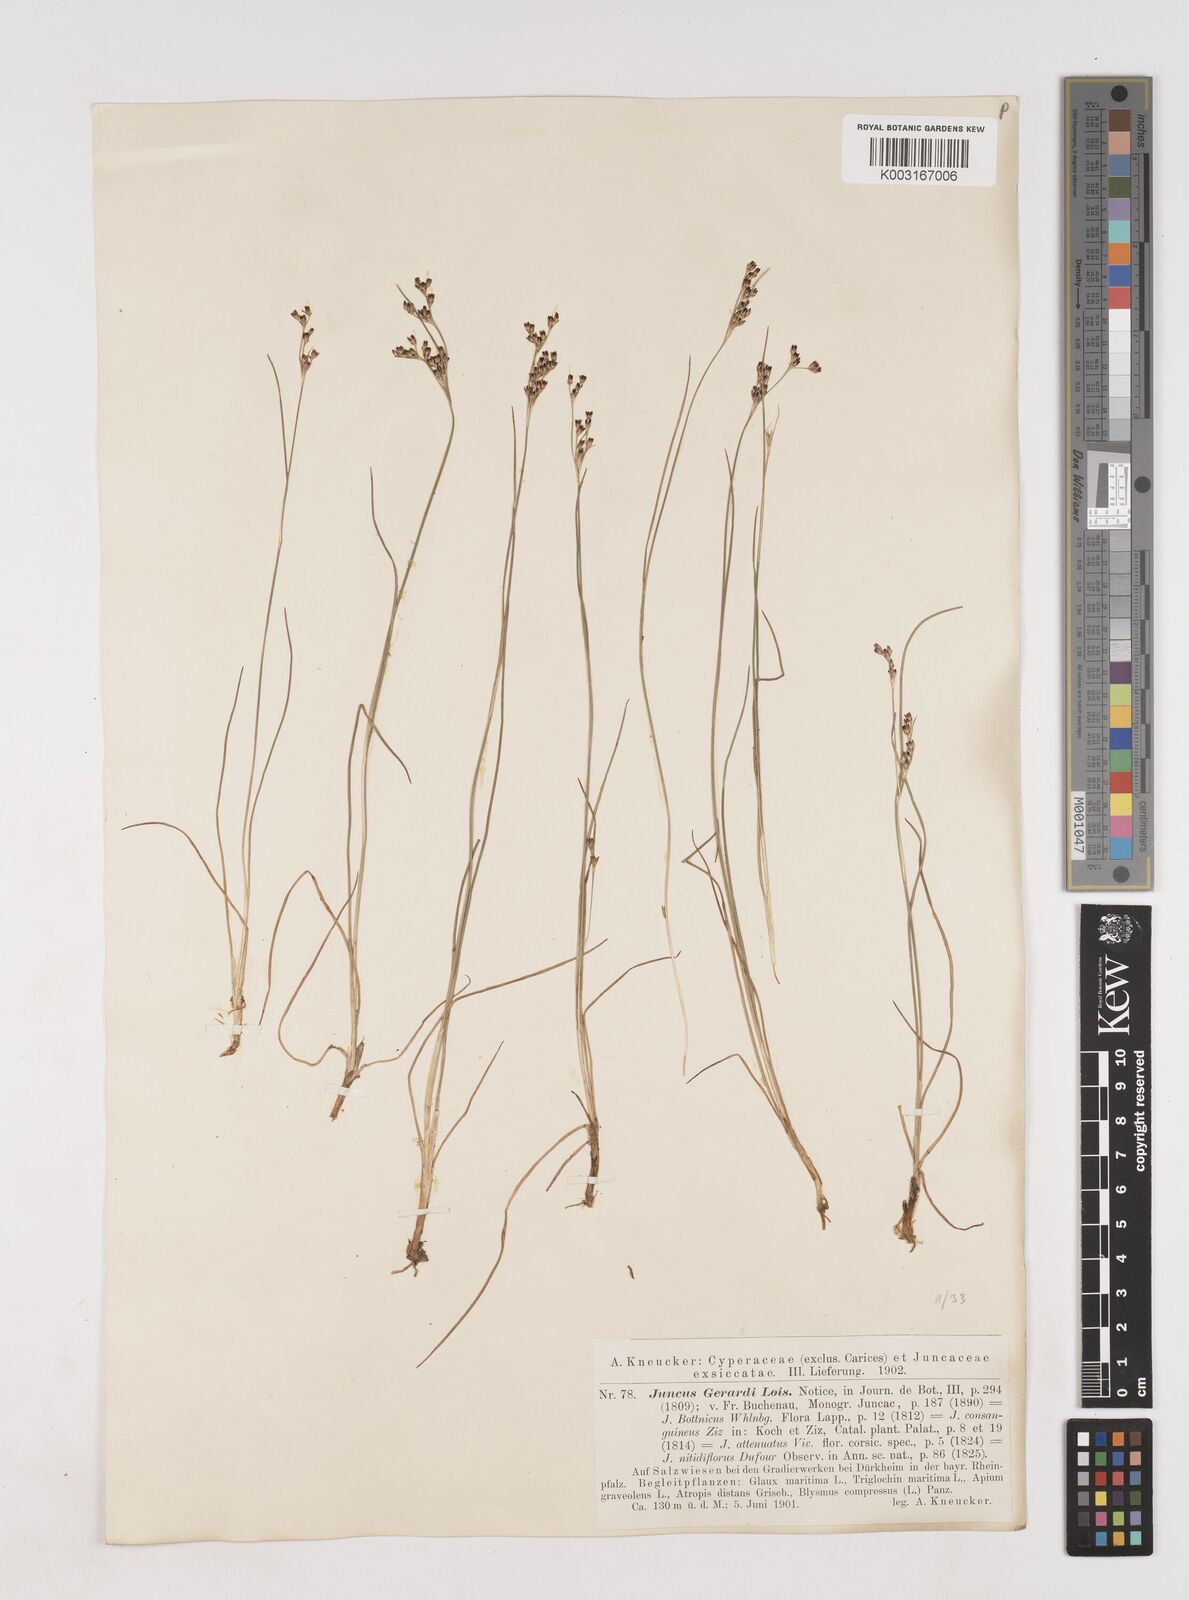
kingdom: Plantae
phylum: Tracheophyta
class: Liliopsida
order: Poales
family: Juncaceae
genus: Juncus
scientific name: Juncus gerardi
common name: Saltmarsh rush
